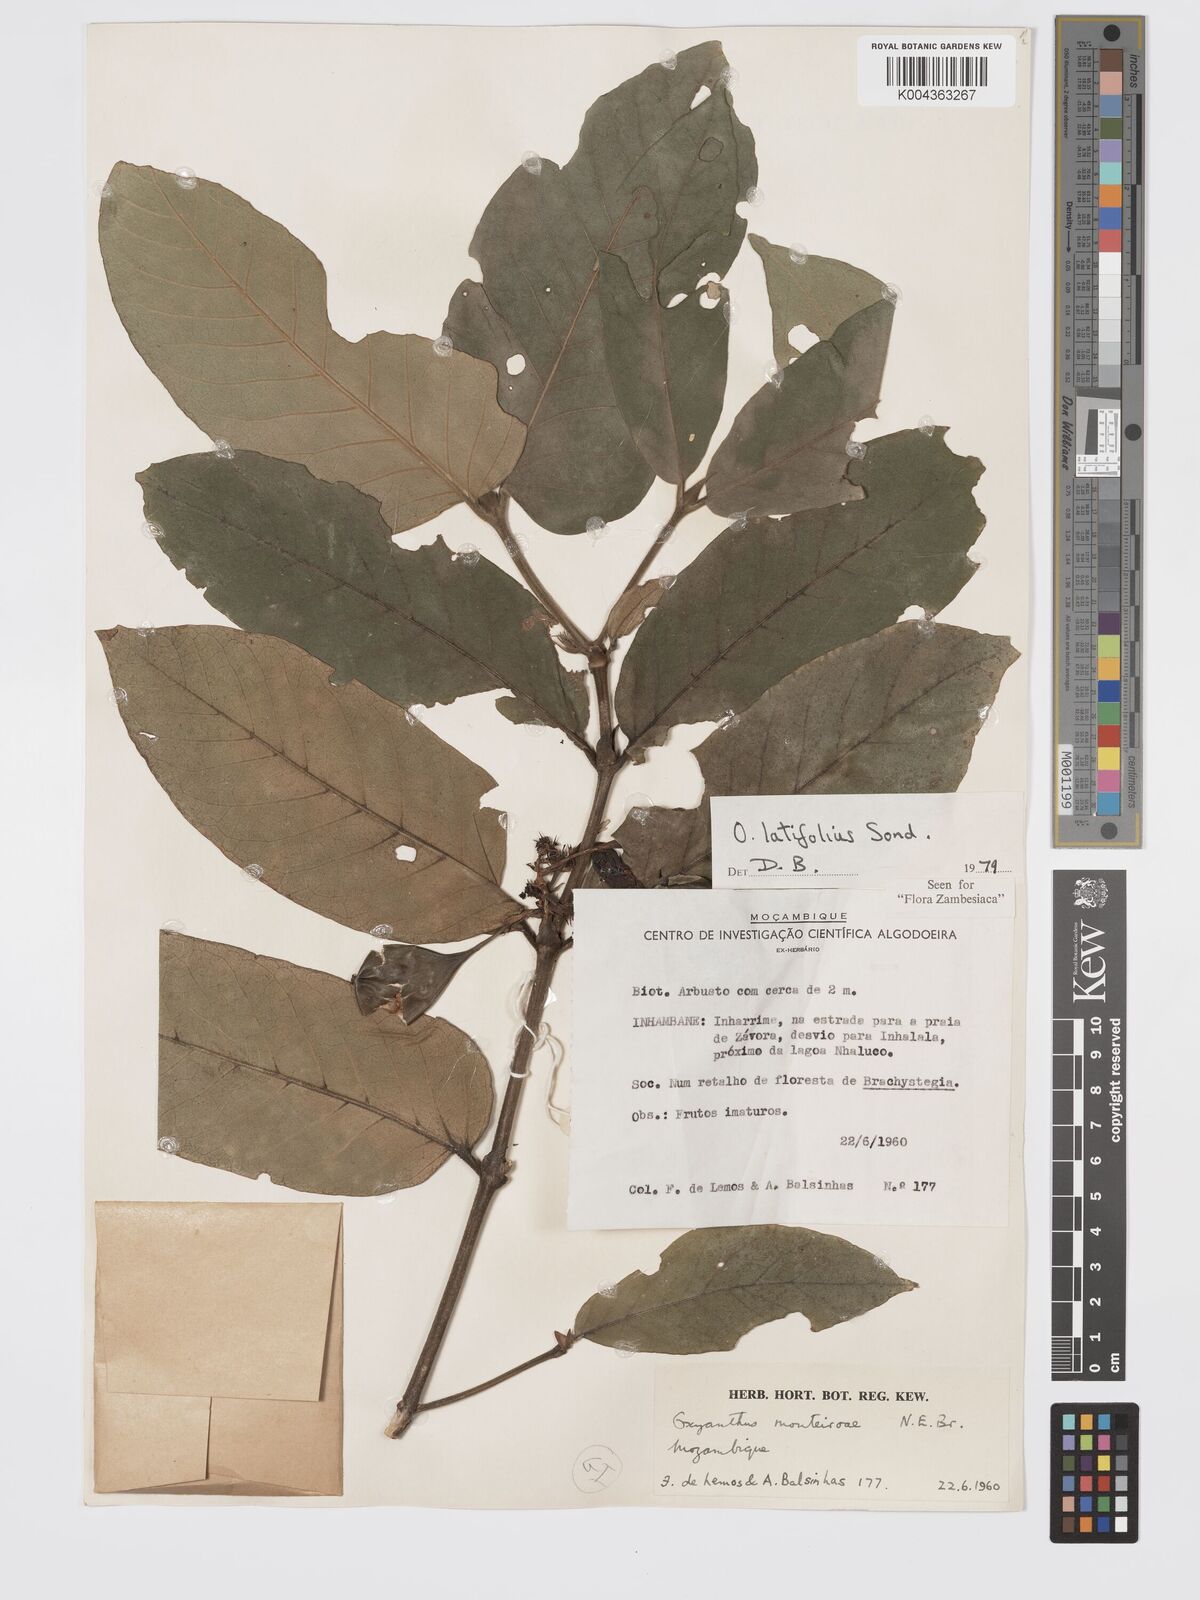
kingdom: Plantae
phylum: Tracheophyta
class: Magnoliopsida
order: Gentianales
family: Rubiaceae
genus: Oxyanthus
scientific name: Oxyanthus latifolius
